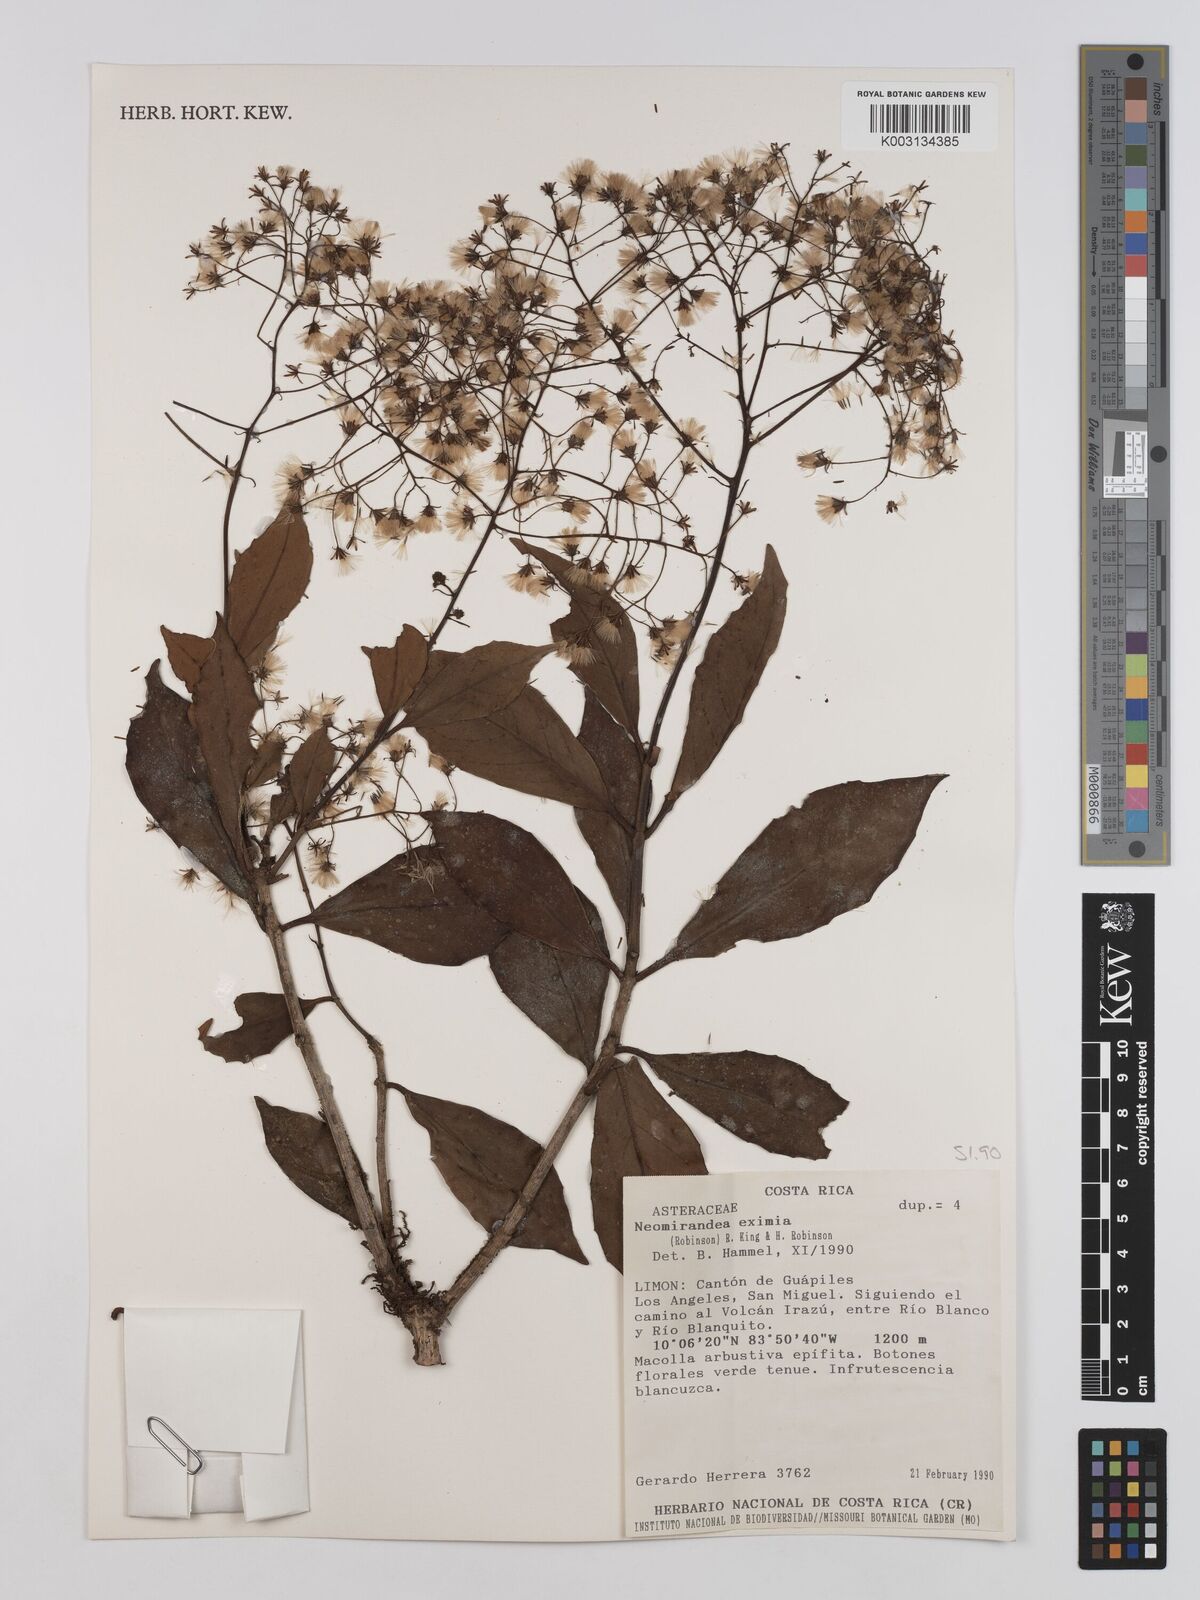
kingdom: Plantae
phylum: Tracheophyta
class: Magnoliopsida
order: Asterales
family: Asteraceae
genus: Neomirandea
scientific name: Neomirandea eximia
